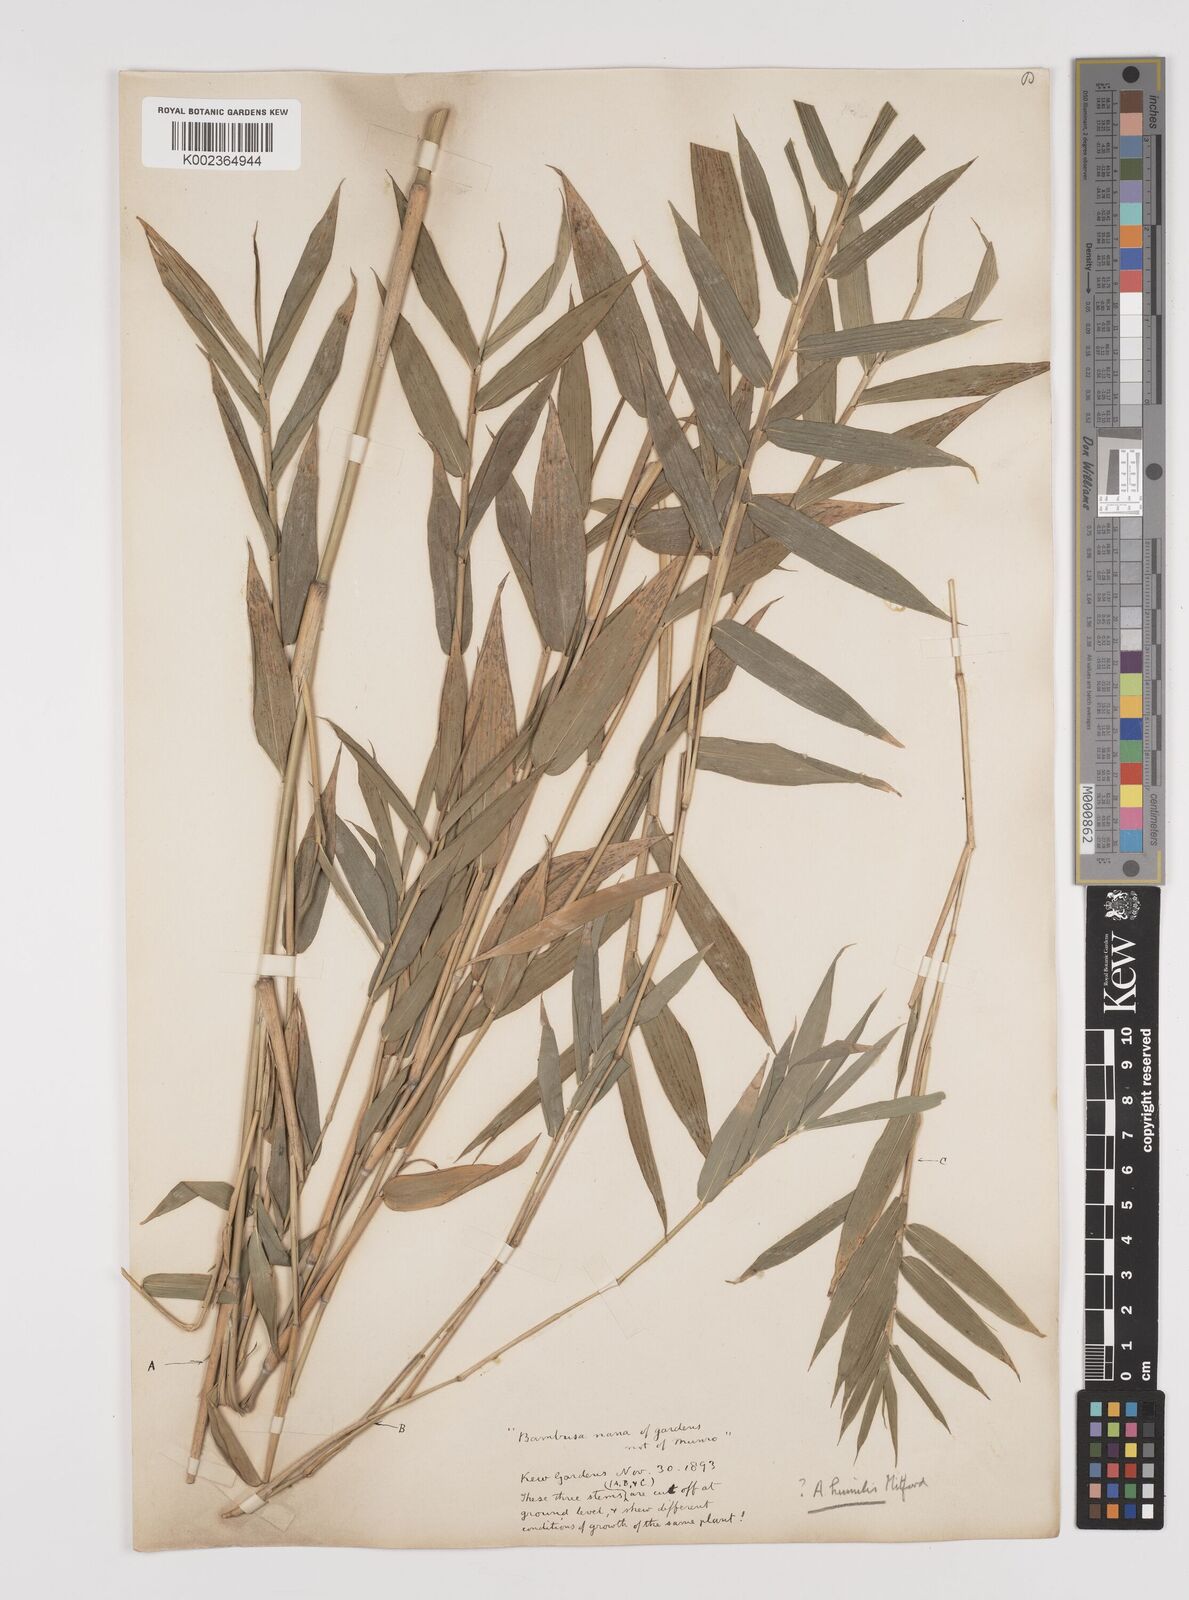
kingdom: Plantae
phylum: Tracheophyta
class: Liliopsida
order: Poales
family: Poaceae
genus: Pleioblastus
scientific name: Pleioblastus argenteostriatus
